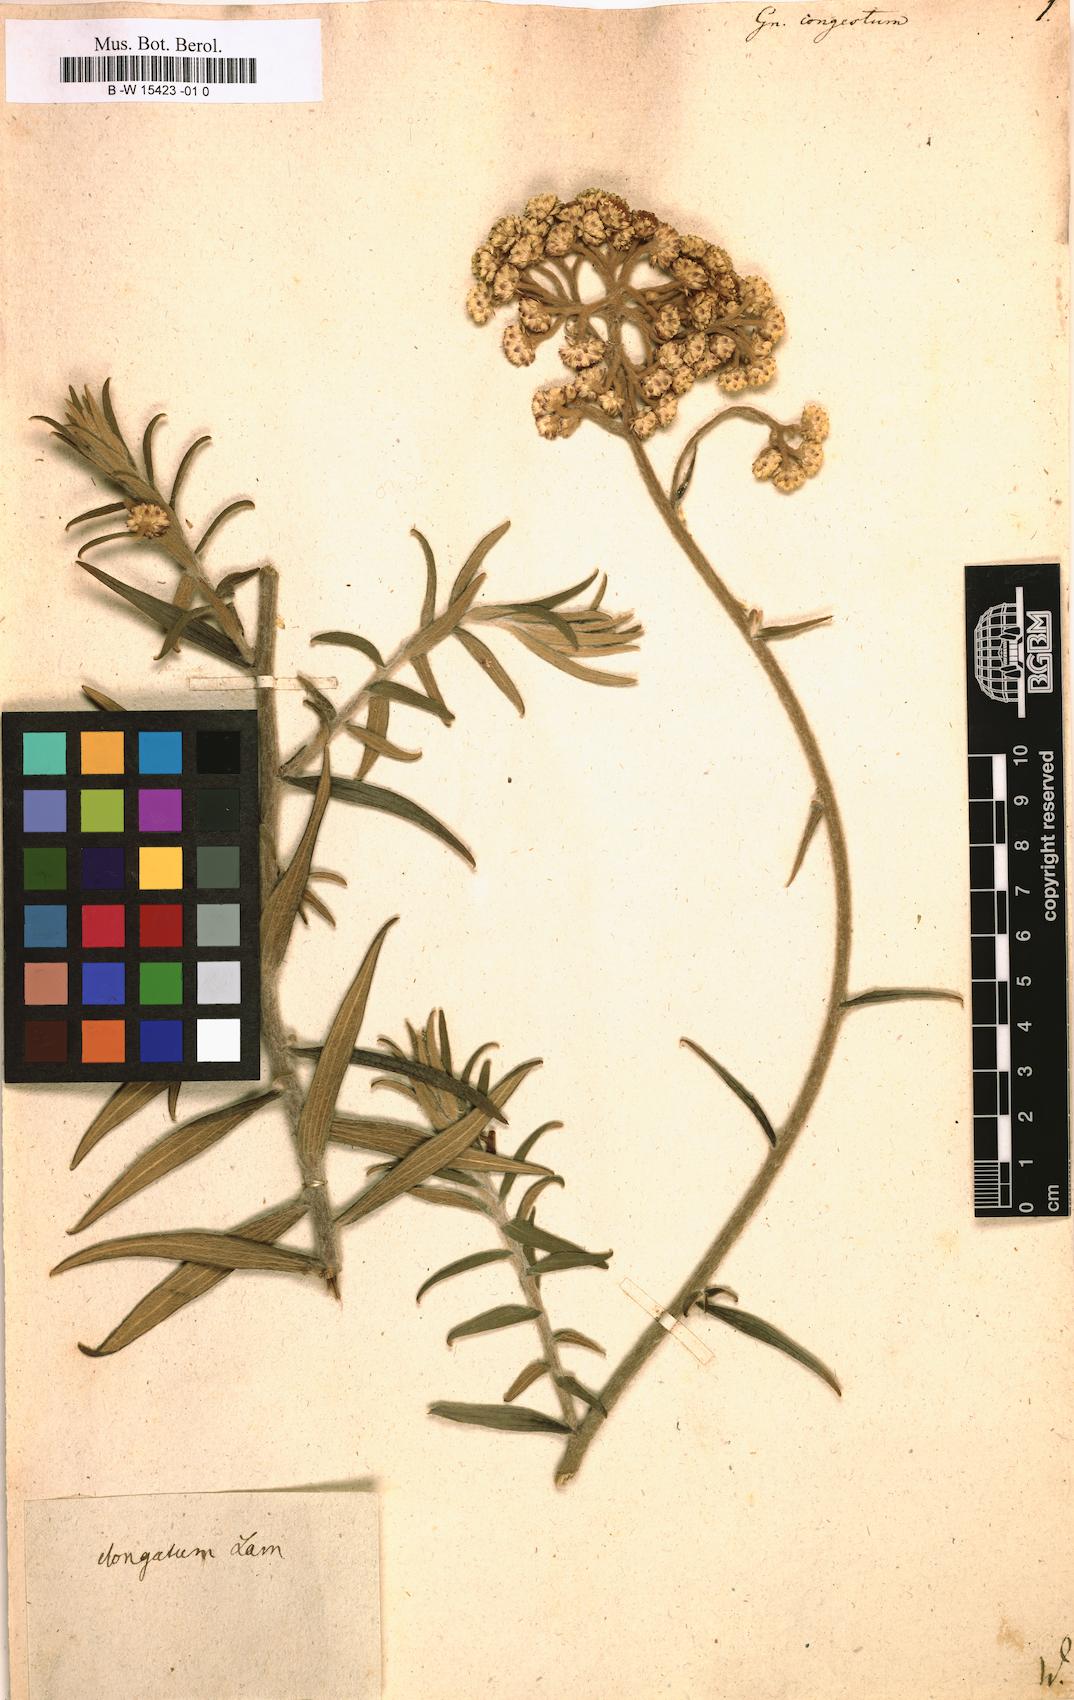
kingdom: Plantae
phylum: Tracheophyta
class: Magnoliopsida
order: Asterales
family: Asteraceae
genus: Helichrysum
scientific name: Helichrysum felinum
